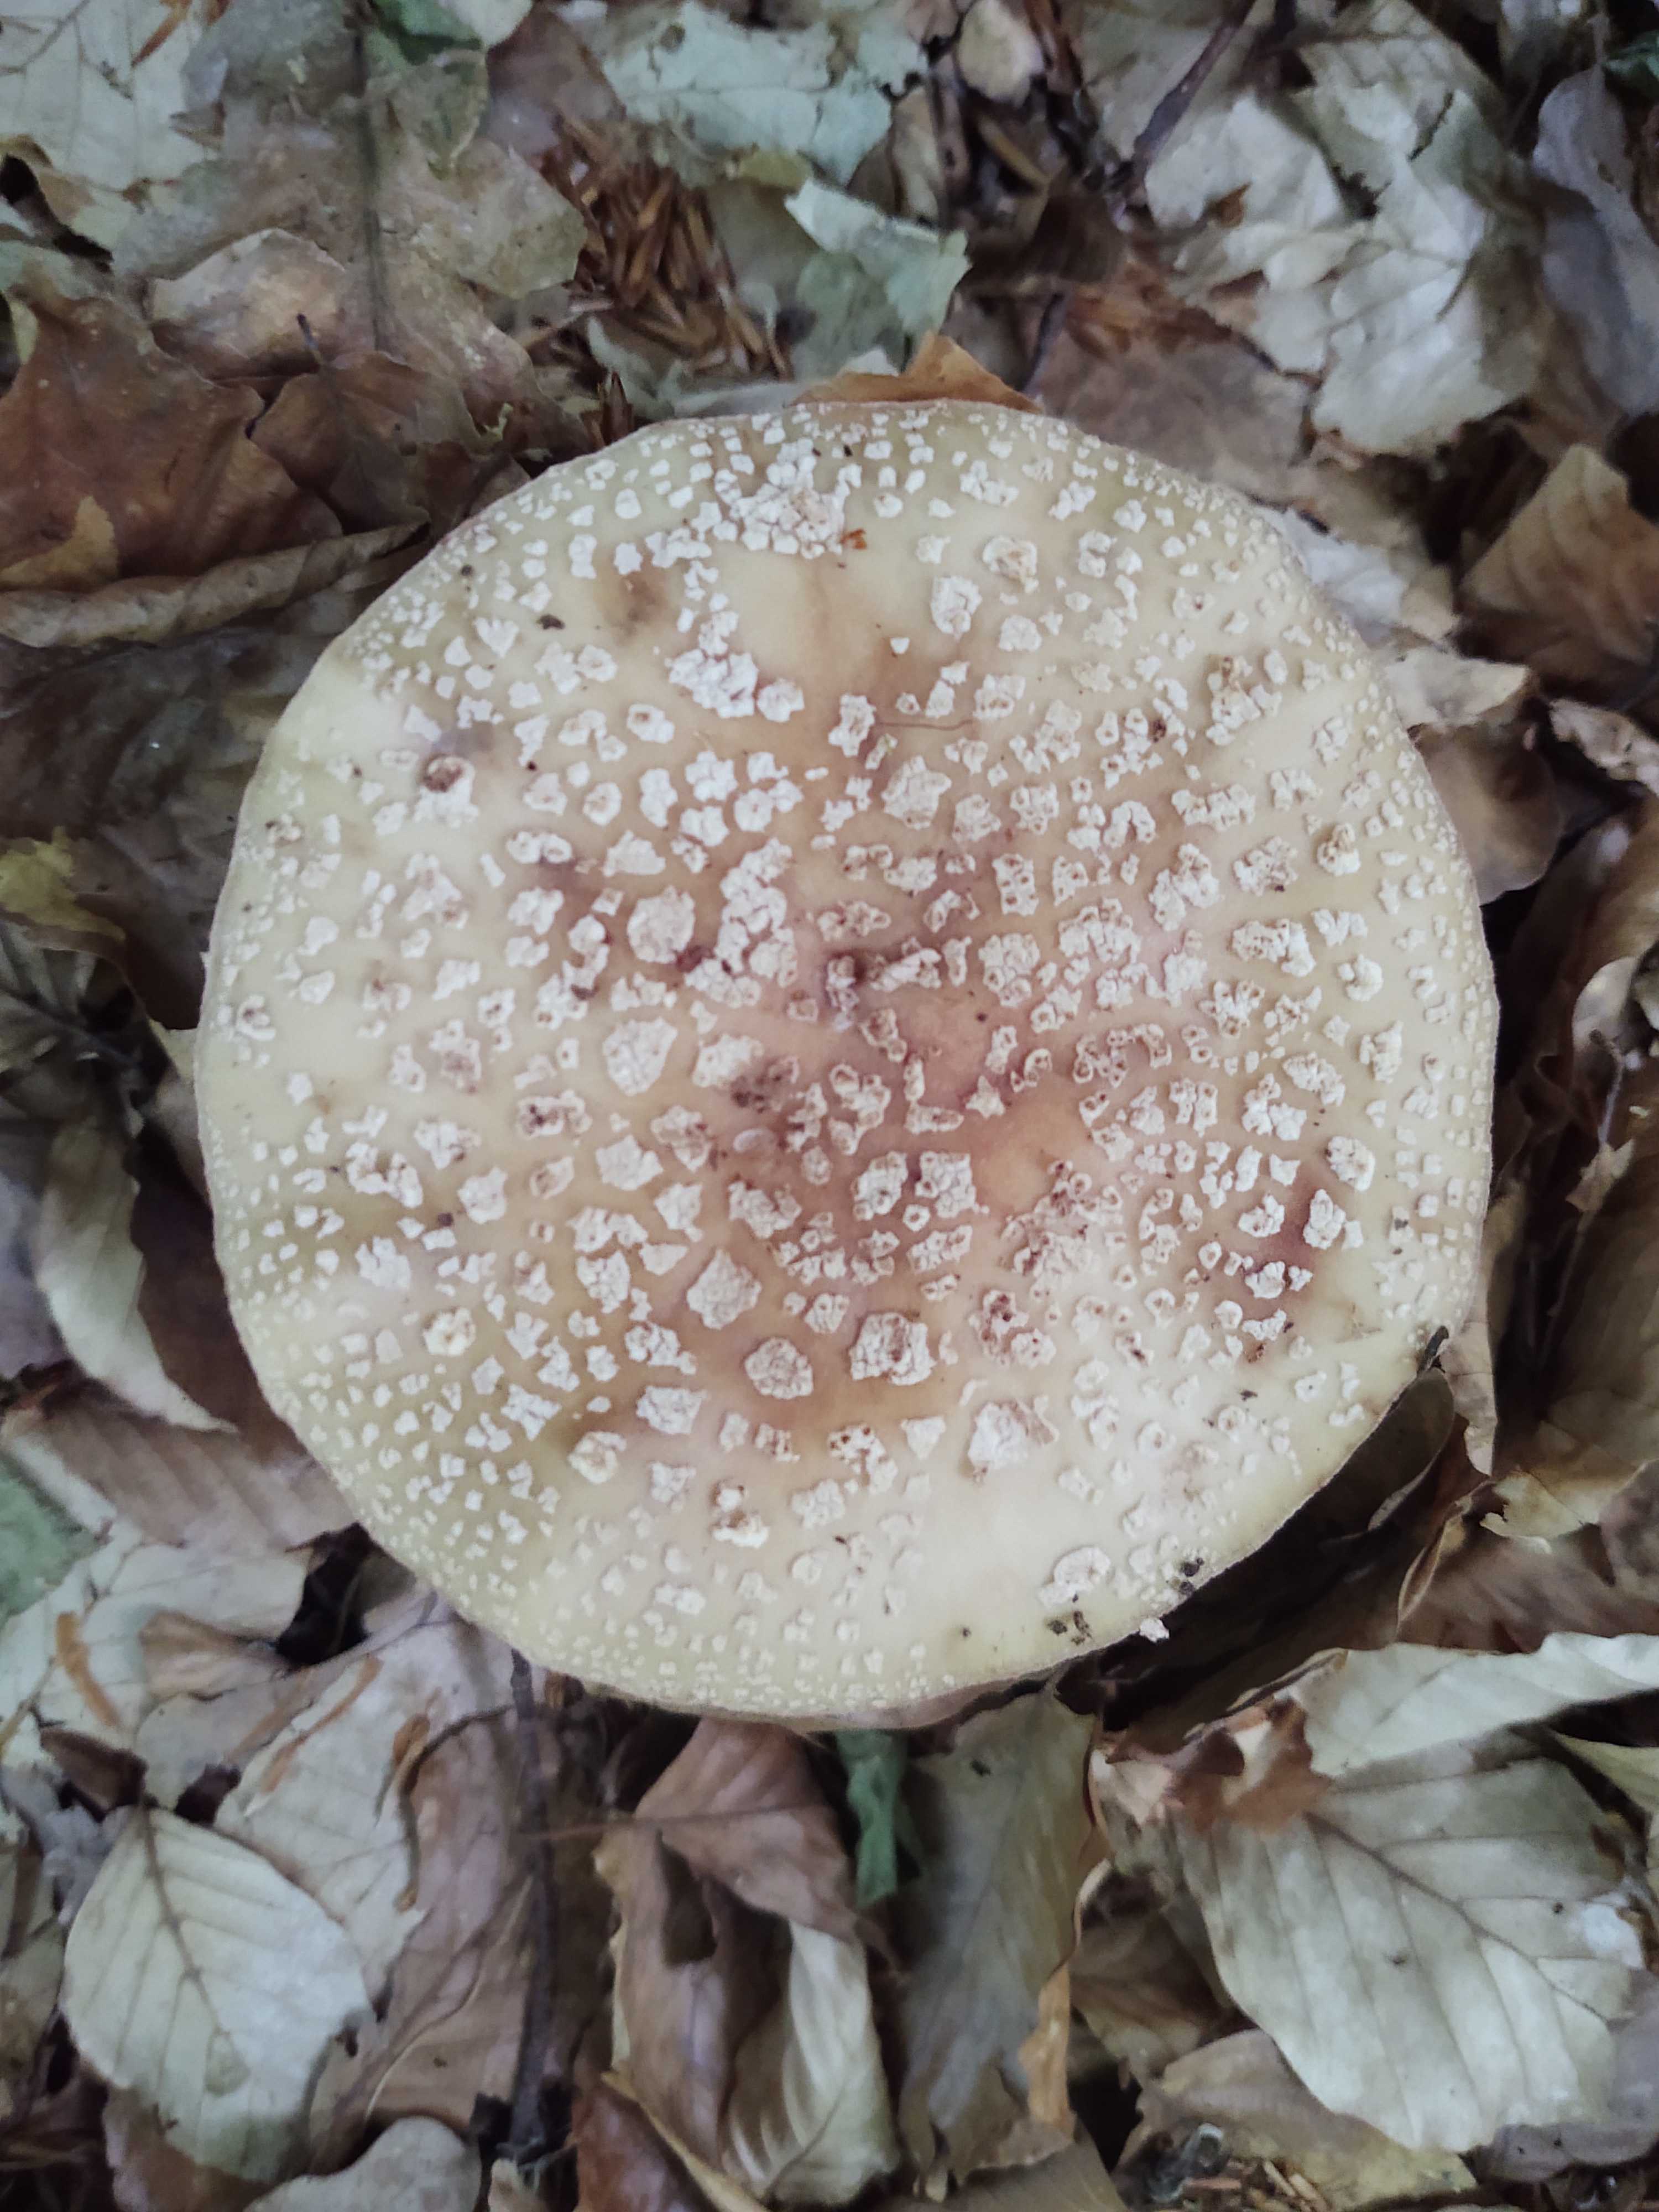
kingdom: Fungi
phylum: Basidiomycota
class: Agaricomycetes
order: Agaricales
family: Amanitaceae
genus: Amanita
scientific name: Amanita rubescens
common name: rødmende fluesvamp
